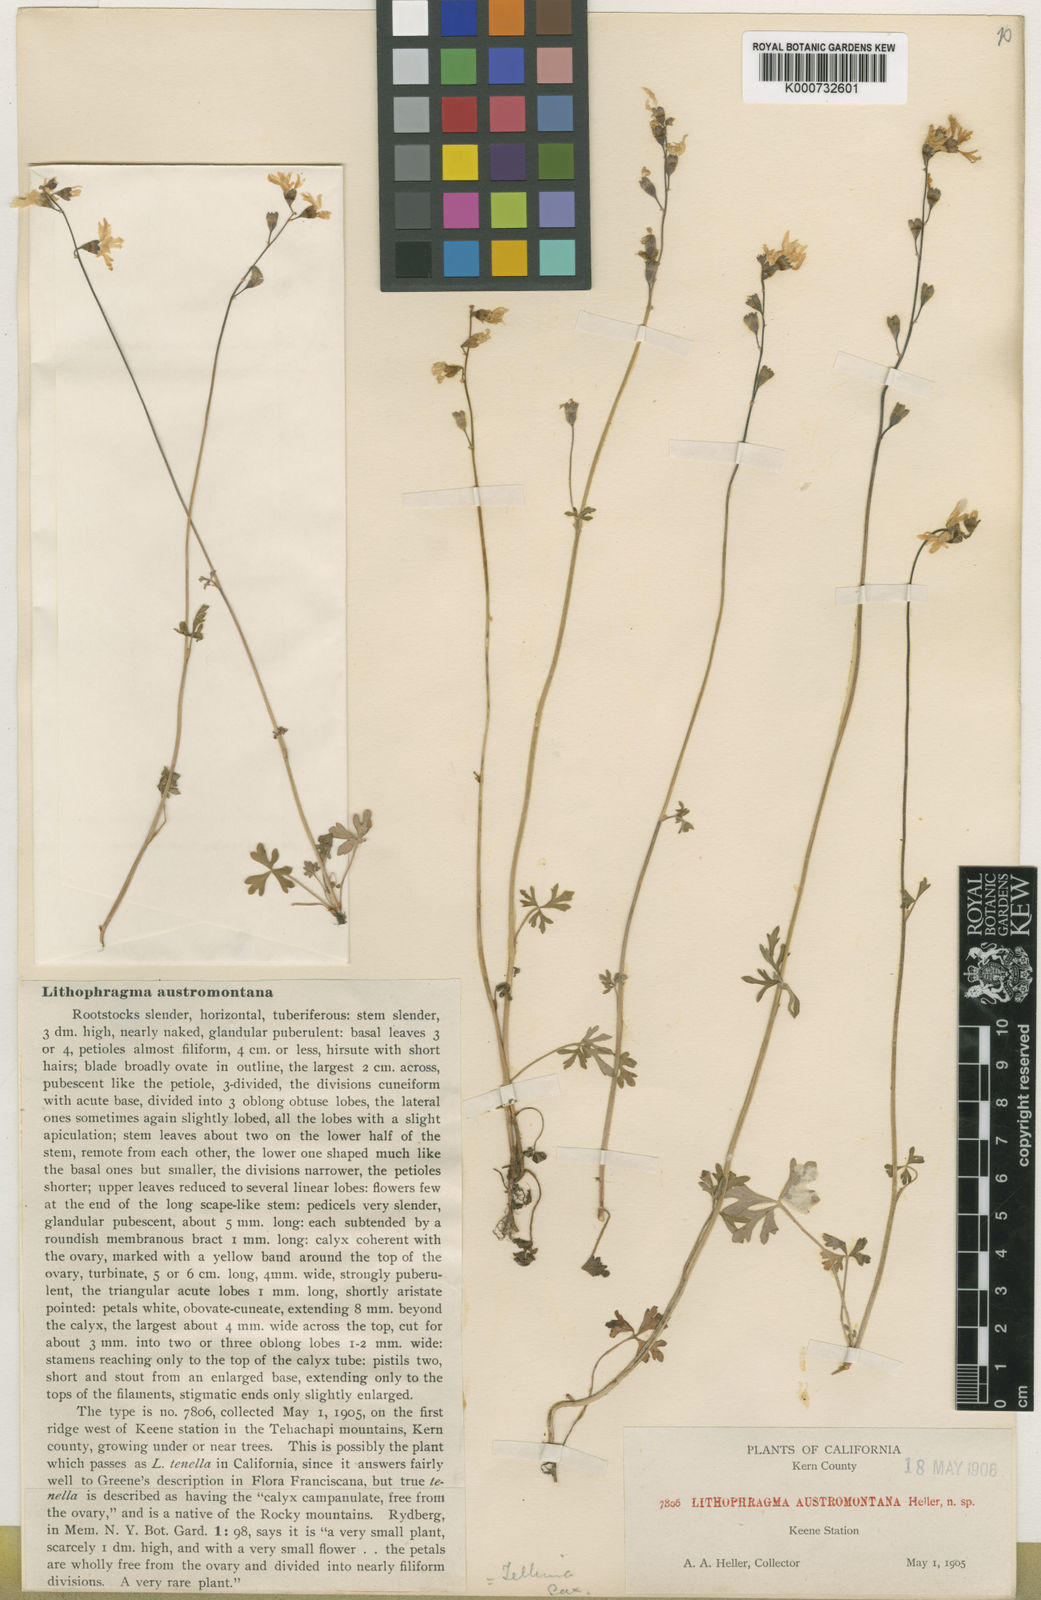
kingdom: Plantae
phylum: Tracheophyta
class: Magnoliopsida
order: Saxifragales
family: Saxifragaceae
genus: Lithophragma
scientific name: Lithophragma
